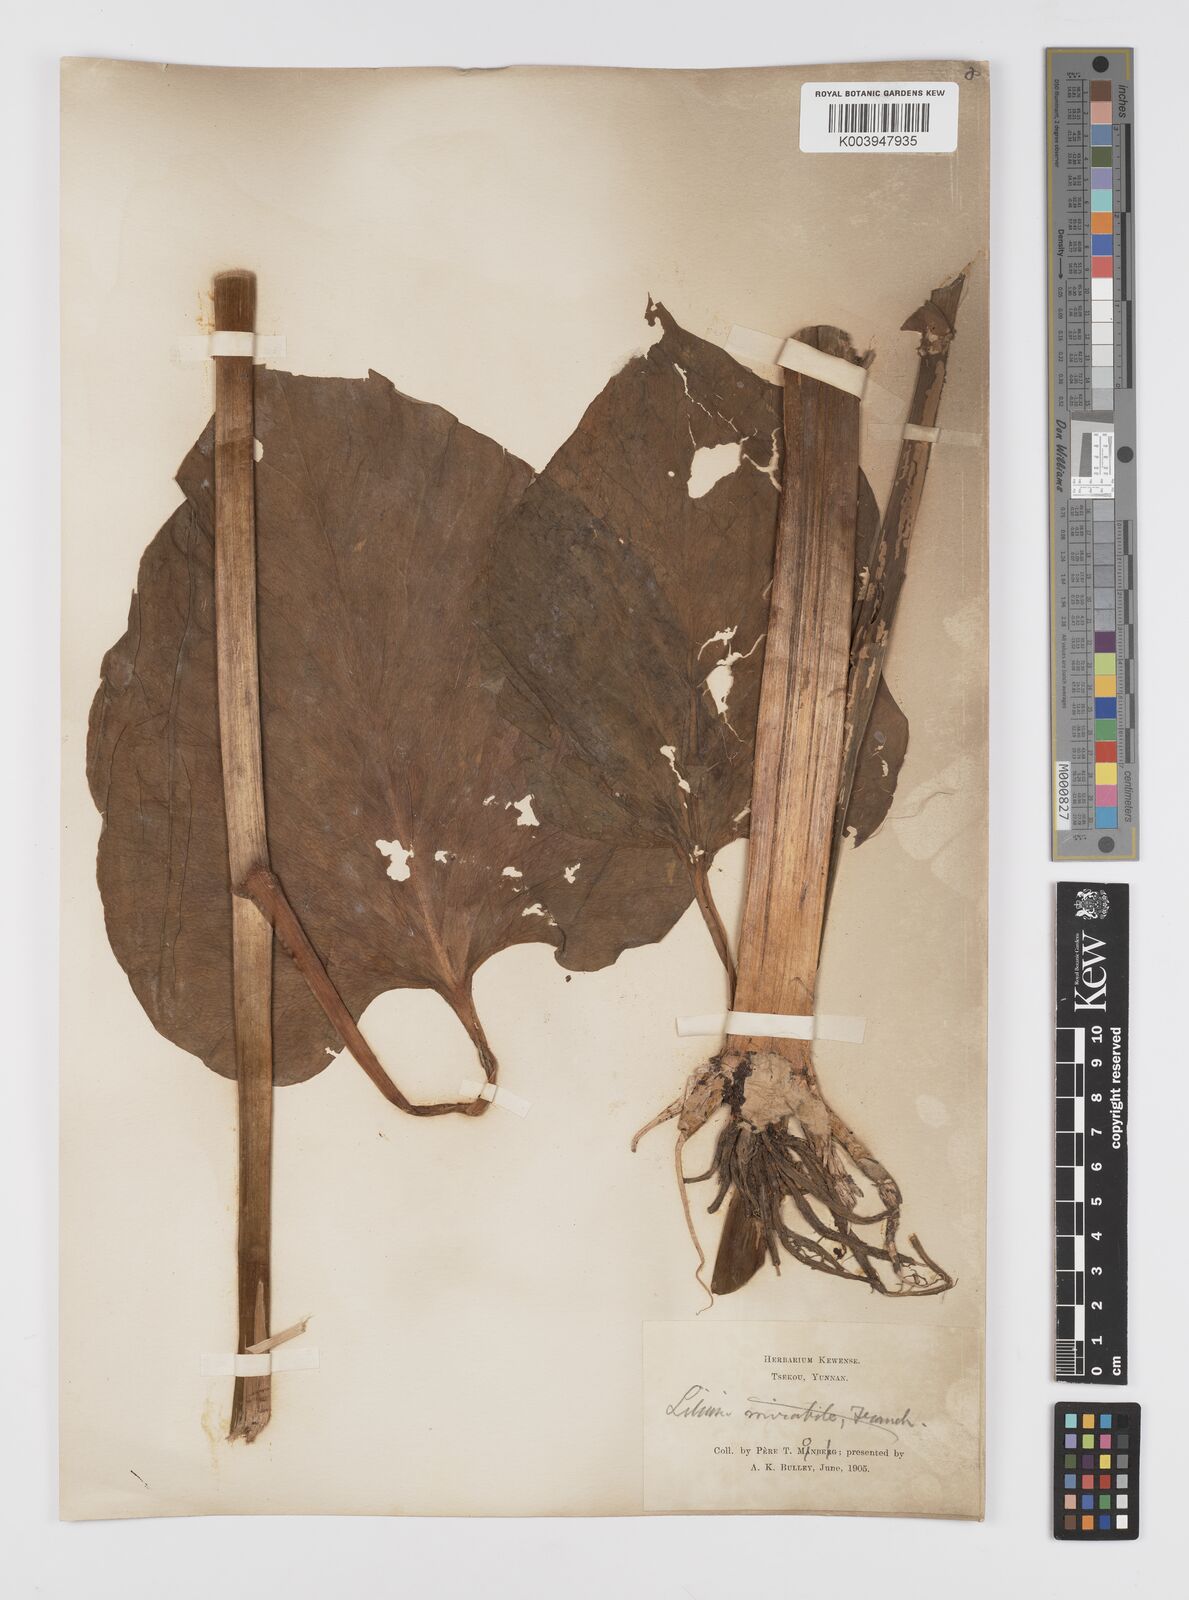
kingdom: Plantae
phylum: Tracheophyta
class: Liliopsida
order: Liliales
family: Liliaceae
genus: Cardiocrinum
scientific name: Cardiocrinum giganteum
